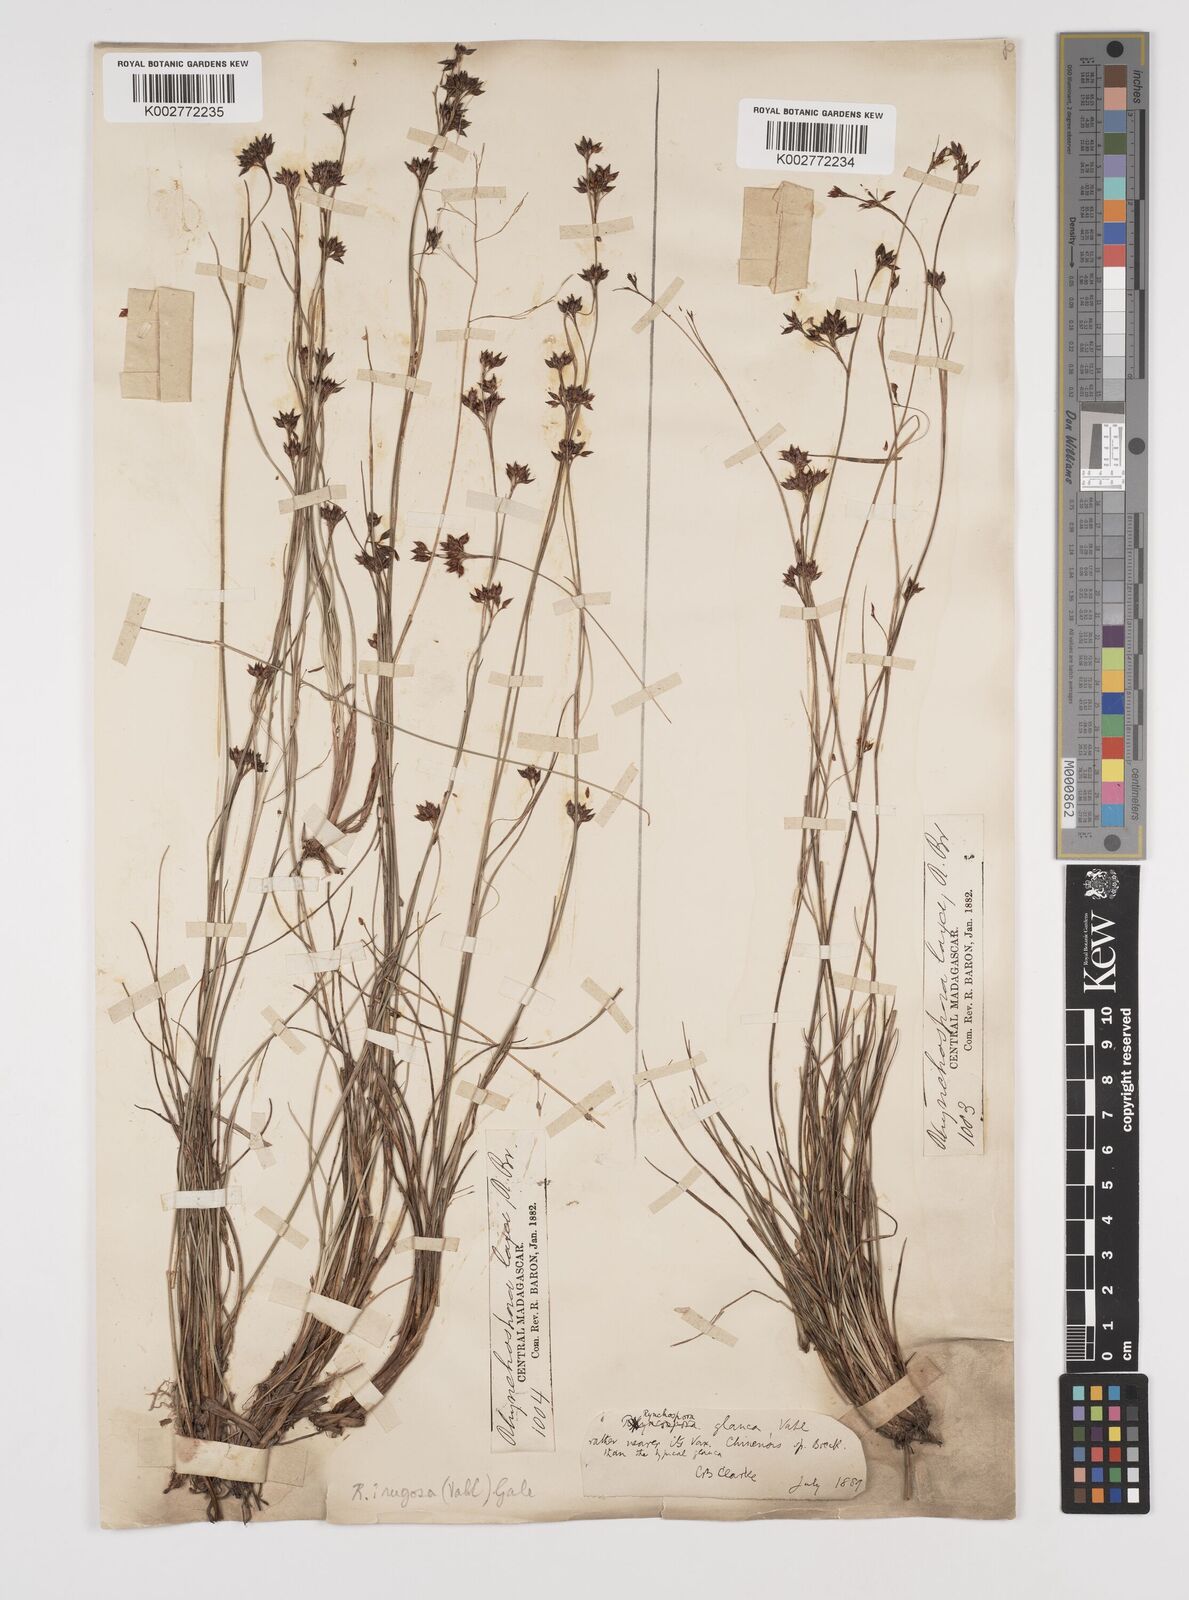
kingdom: Plantae
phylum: Tracheophyta
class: Liliopsida
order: Poales
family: Cyperaceae
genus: Rhynchospora
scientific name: Rhynchospora rugosa
